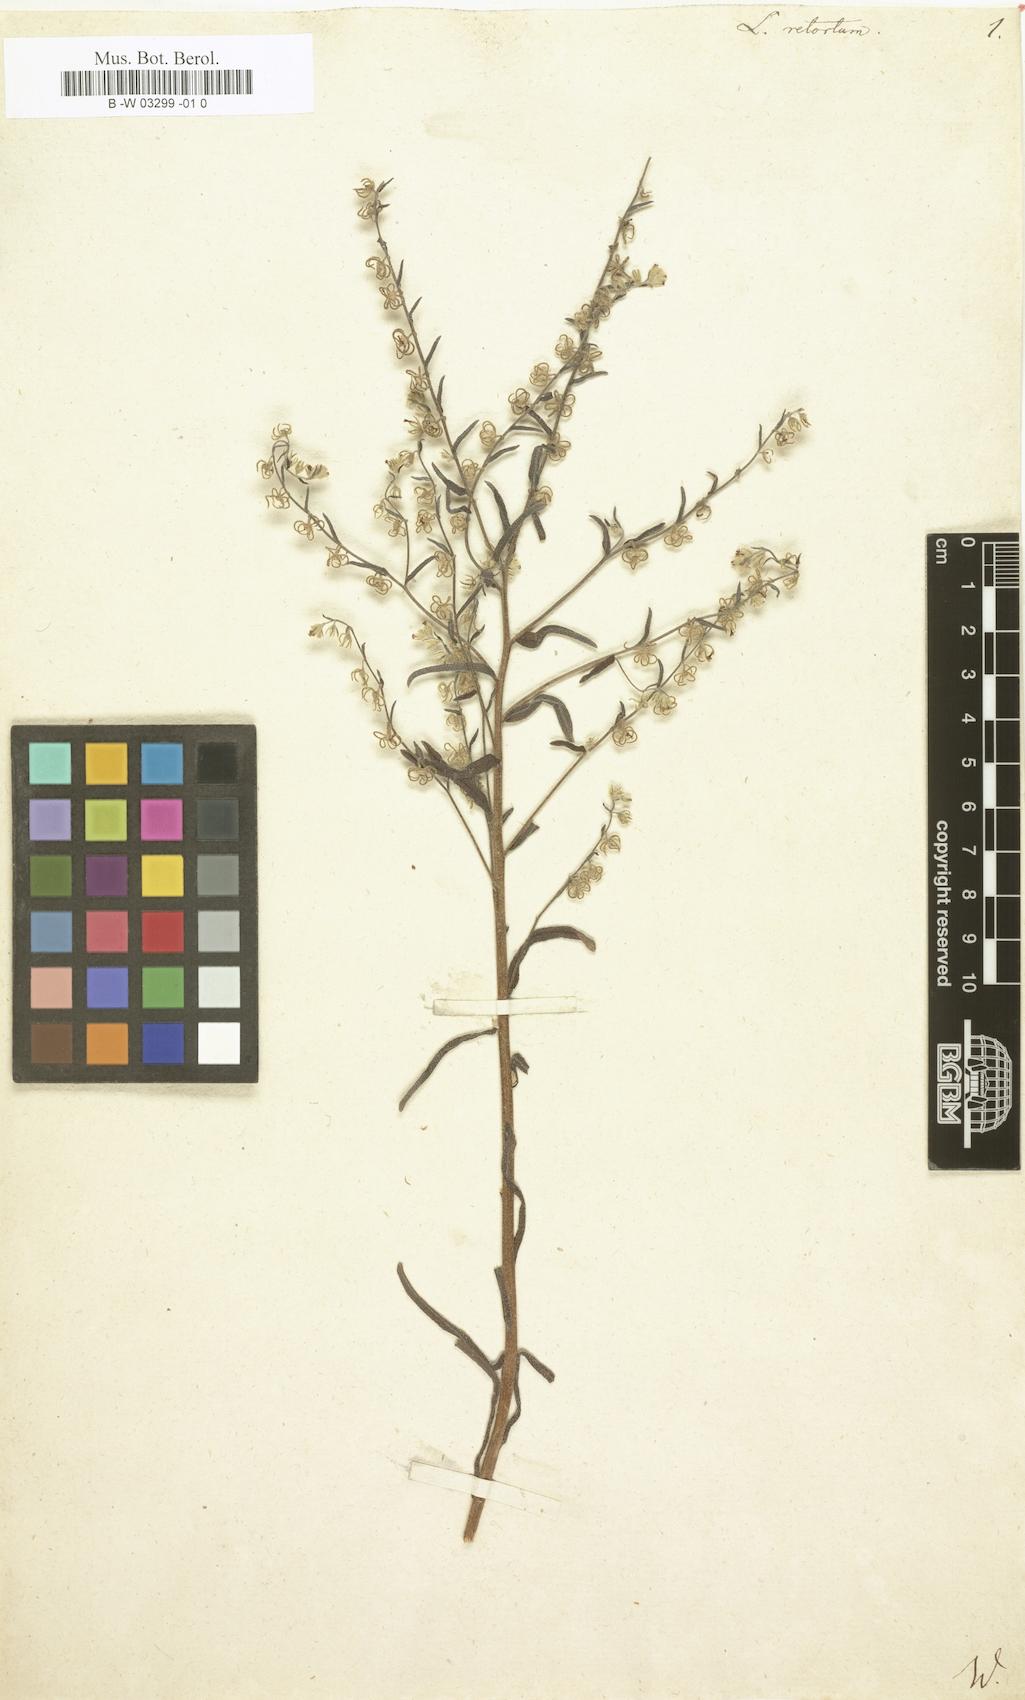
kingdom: Plantae
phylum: Tracheophyta
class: Magnoliopsida
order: Boraginales
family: Boraginaceae
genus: Rochelia
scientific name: Rochelia retorta
